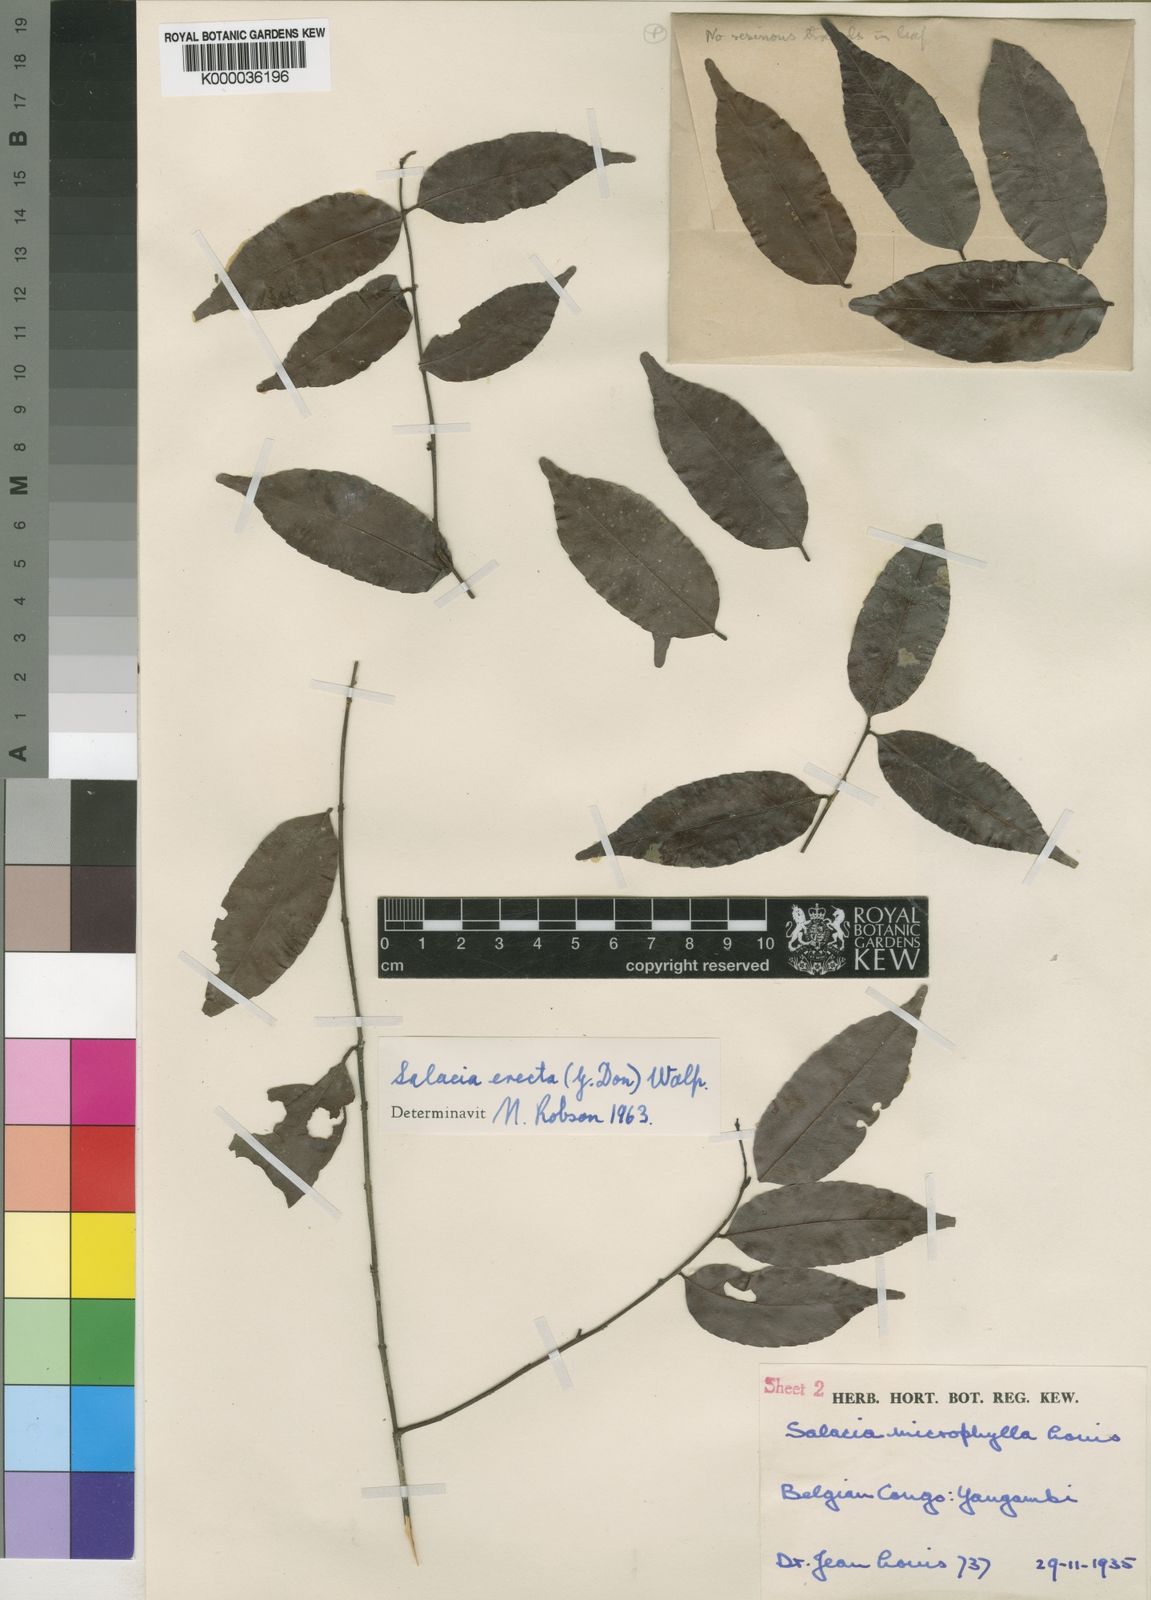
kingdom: Plantae
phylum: Tracheophyta
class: Magnoliopsida
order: Celastrales
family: Celastraceae
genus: Salacia
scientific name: Salacia erecta
